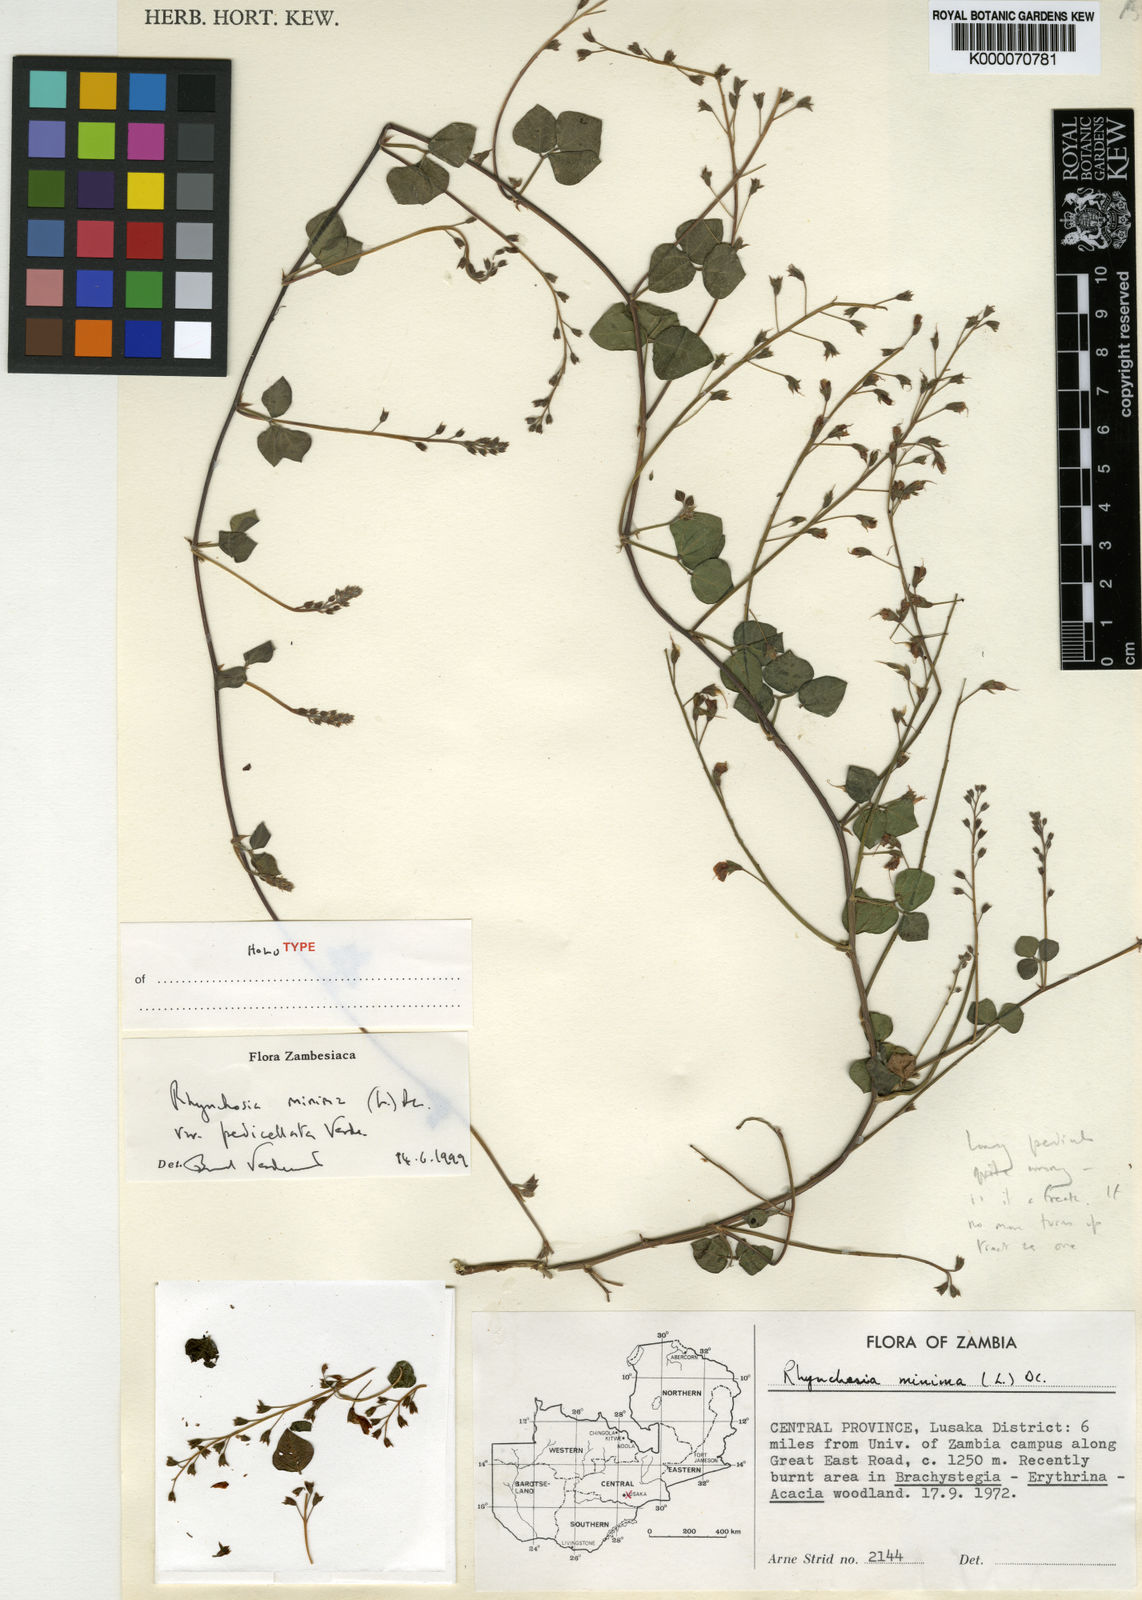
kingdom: Plantae
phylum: Tracheophyta
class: Magnoliopsida
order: Fabales
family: Fabaceae
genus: Rhynchosia
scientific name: Rhynchosia minima
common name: Least snoutbean
